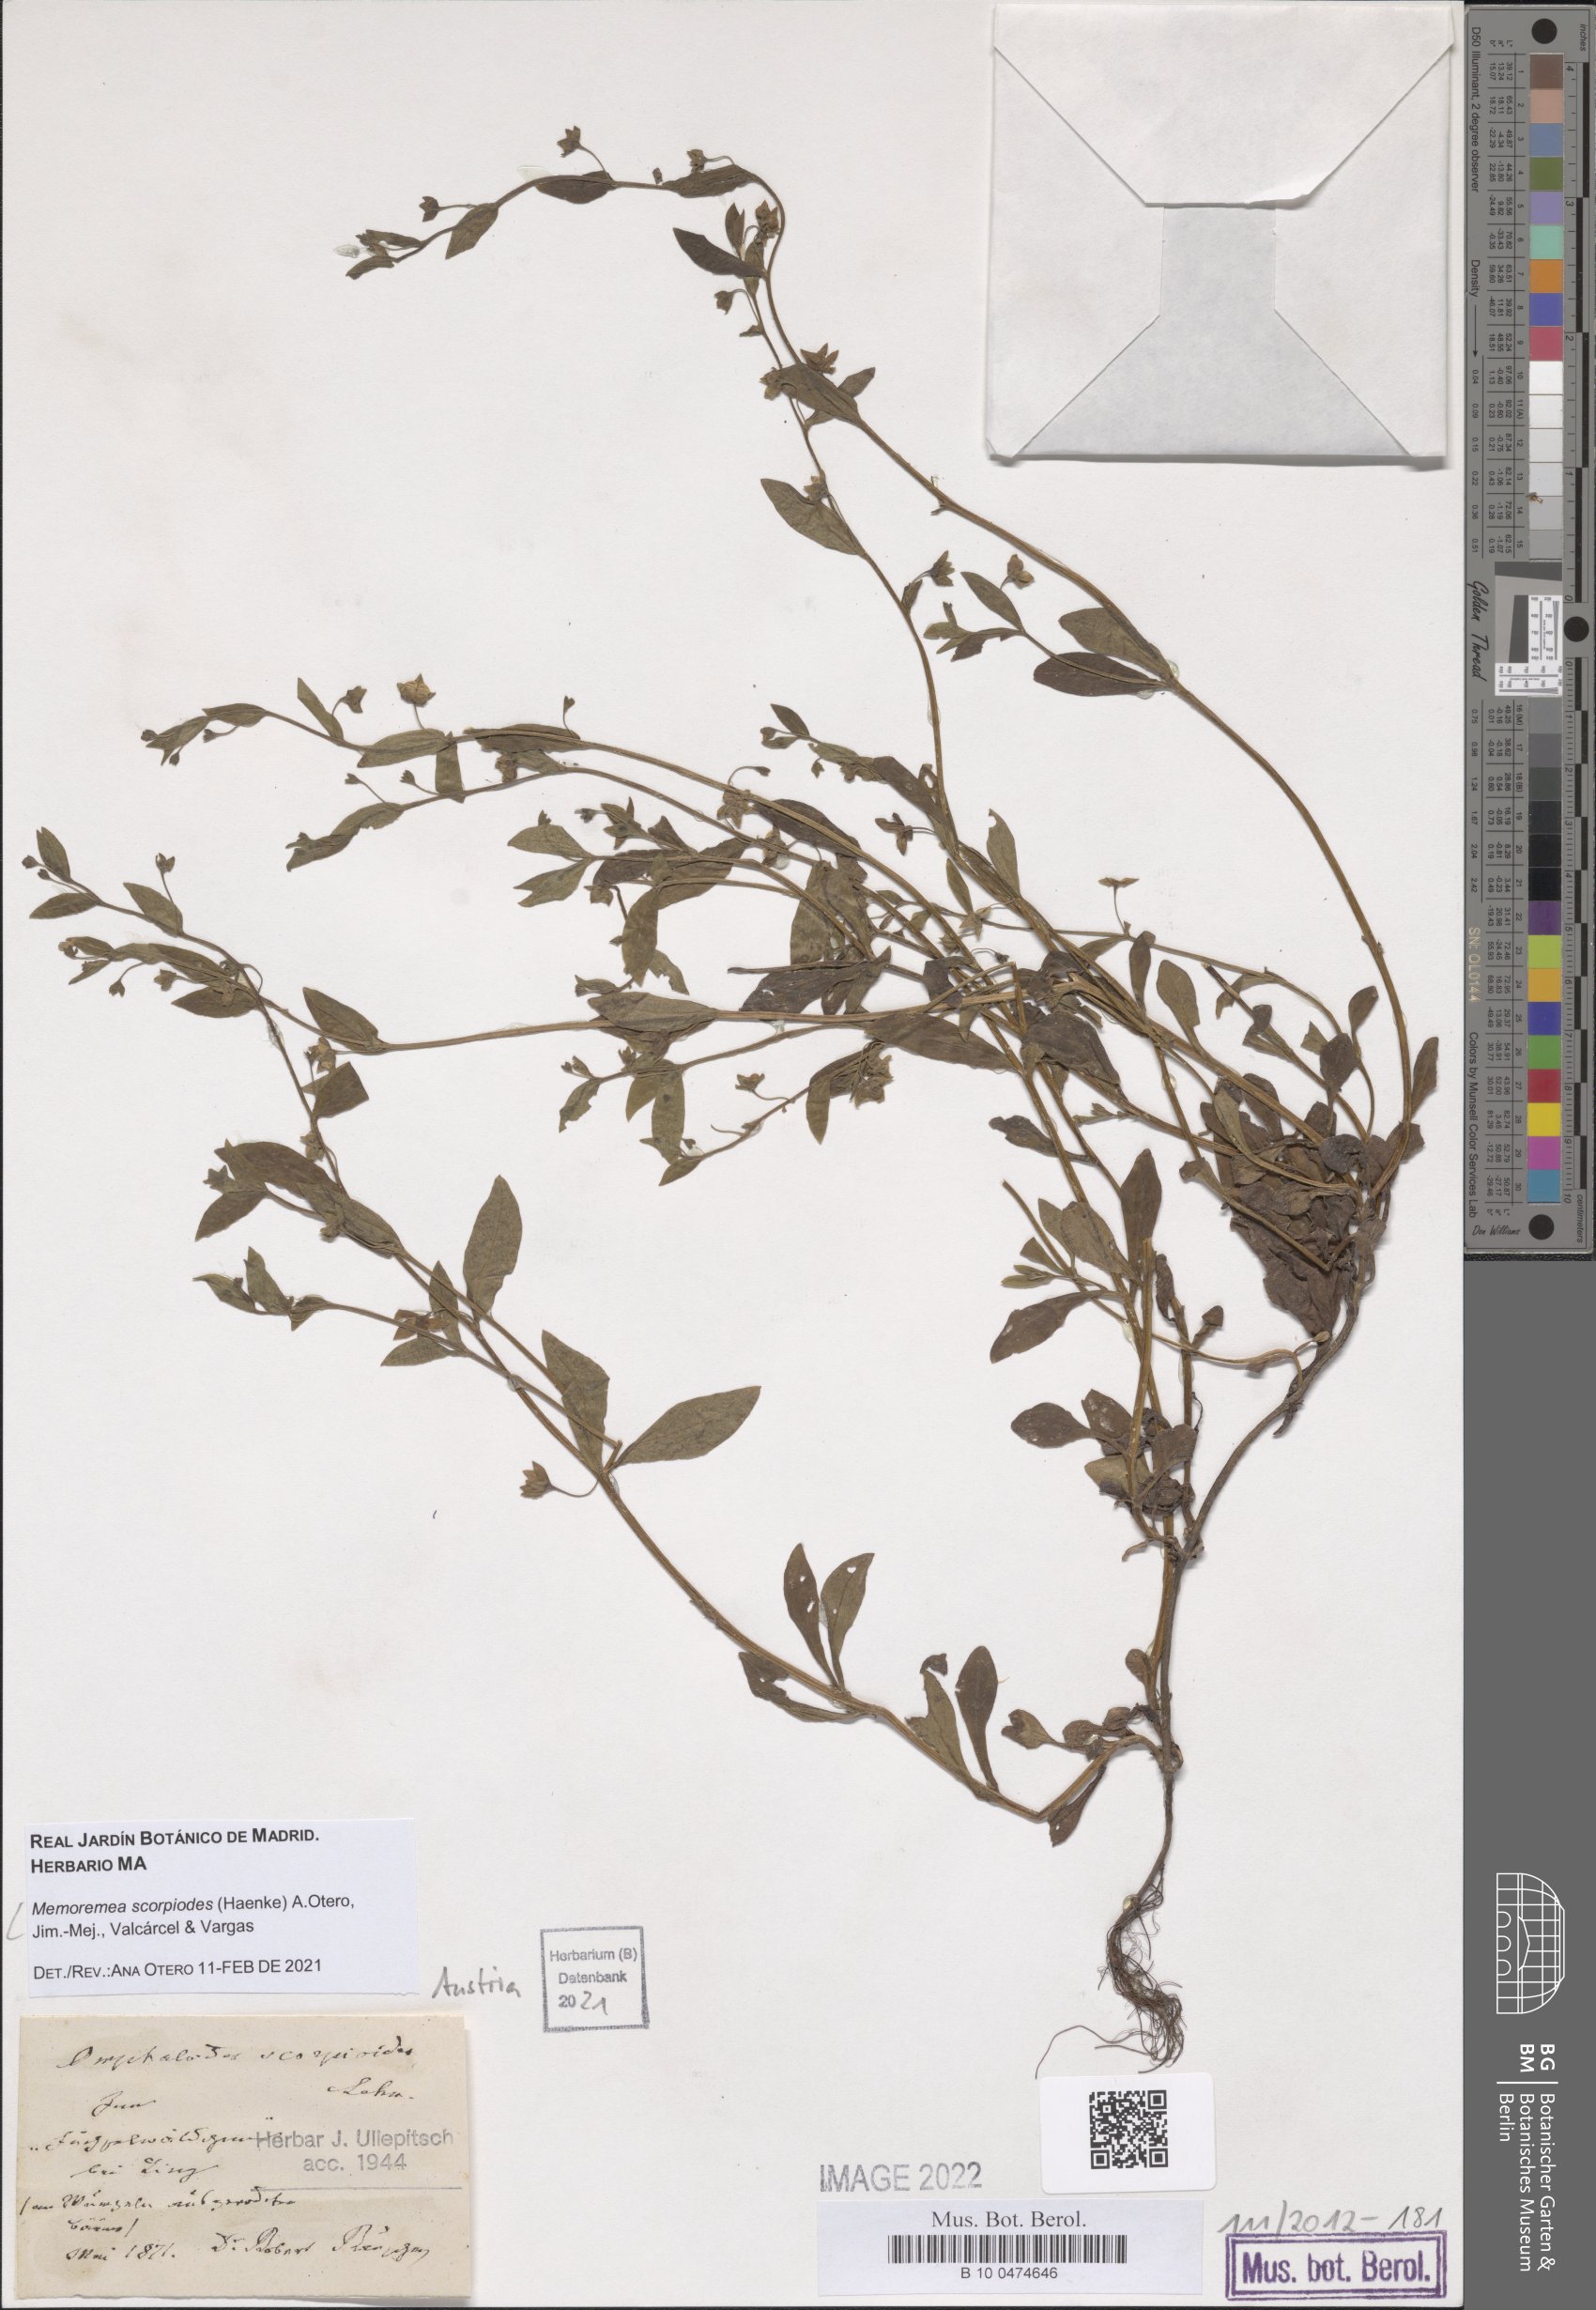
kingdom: Plantae
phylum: Tracheophyta
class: Magnoliopsida
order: Boraginales
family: Boraginaceae
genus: Memoremea
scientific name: Memoremea scorpioides
